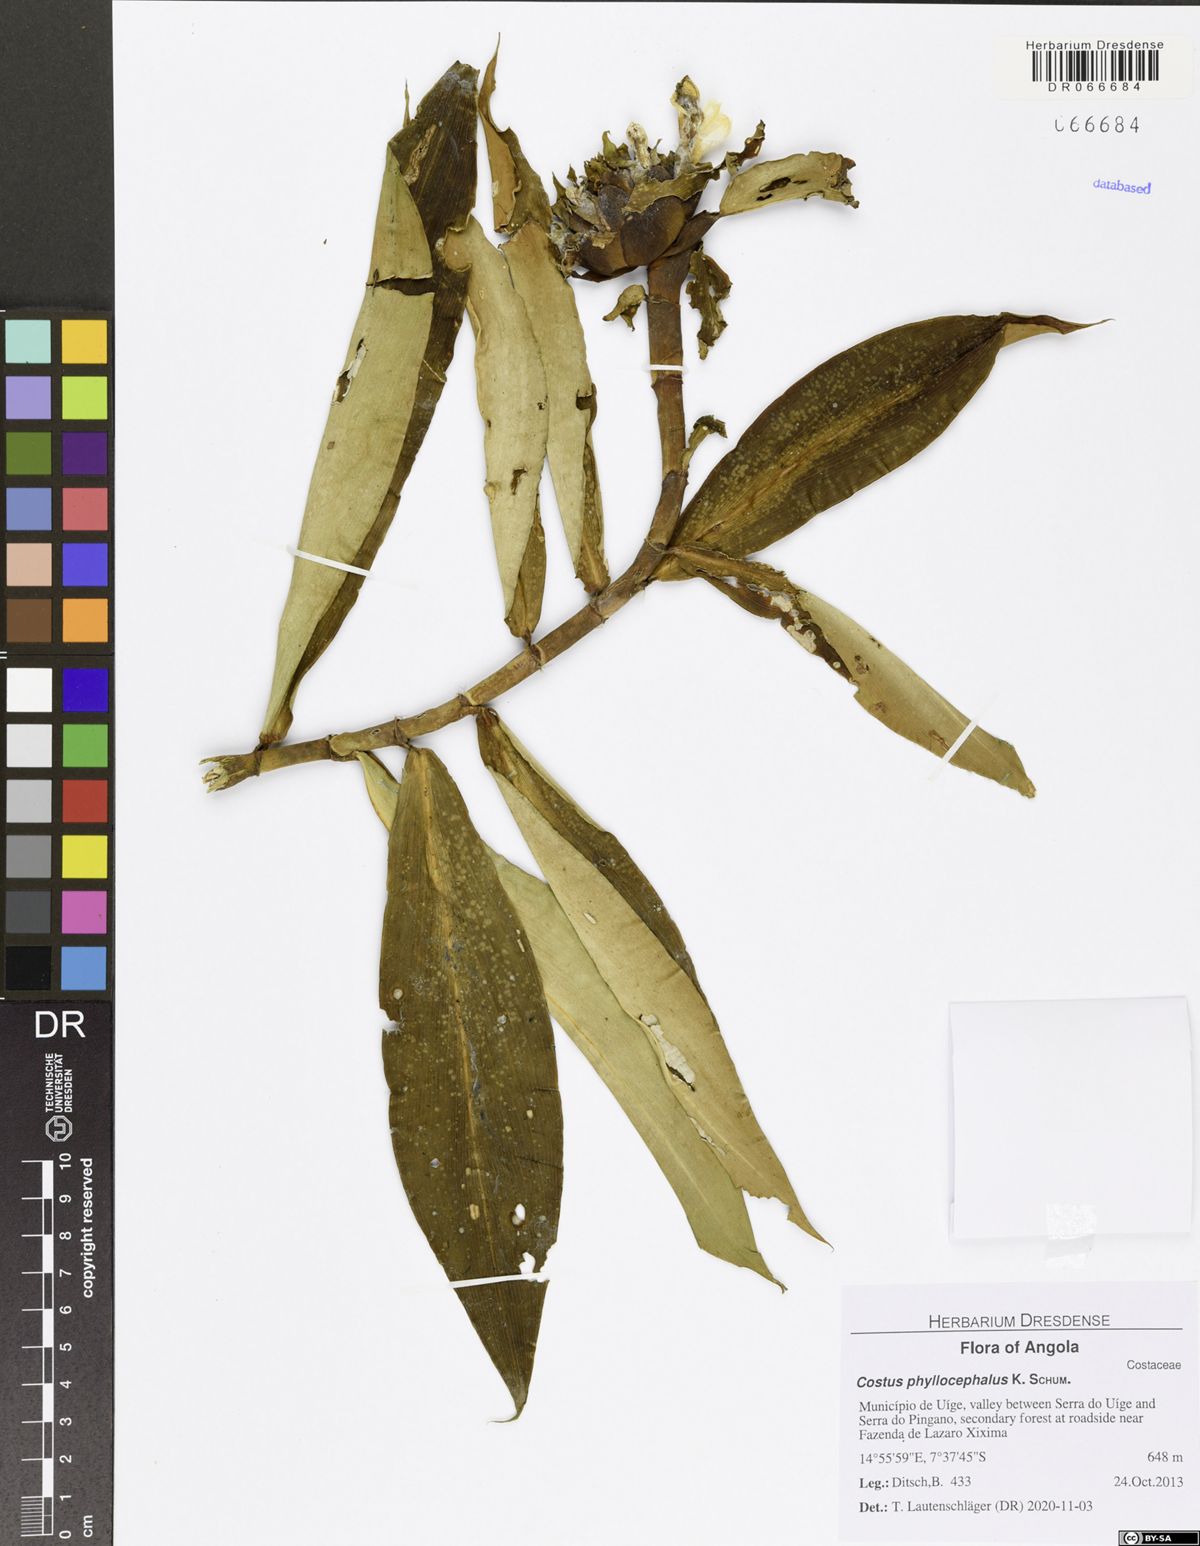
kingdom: Plantae
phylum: Tracheophyta
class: Liliopsida
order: Zingiberales
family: Costaceae
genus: Costus
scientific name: Costus phyllocephalus
